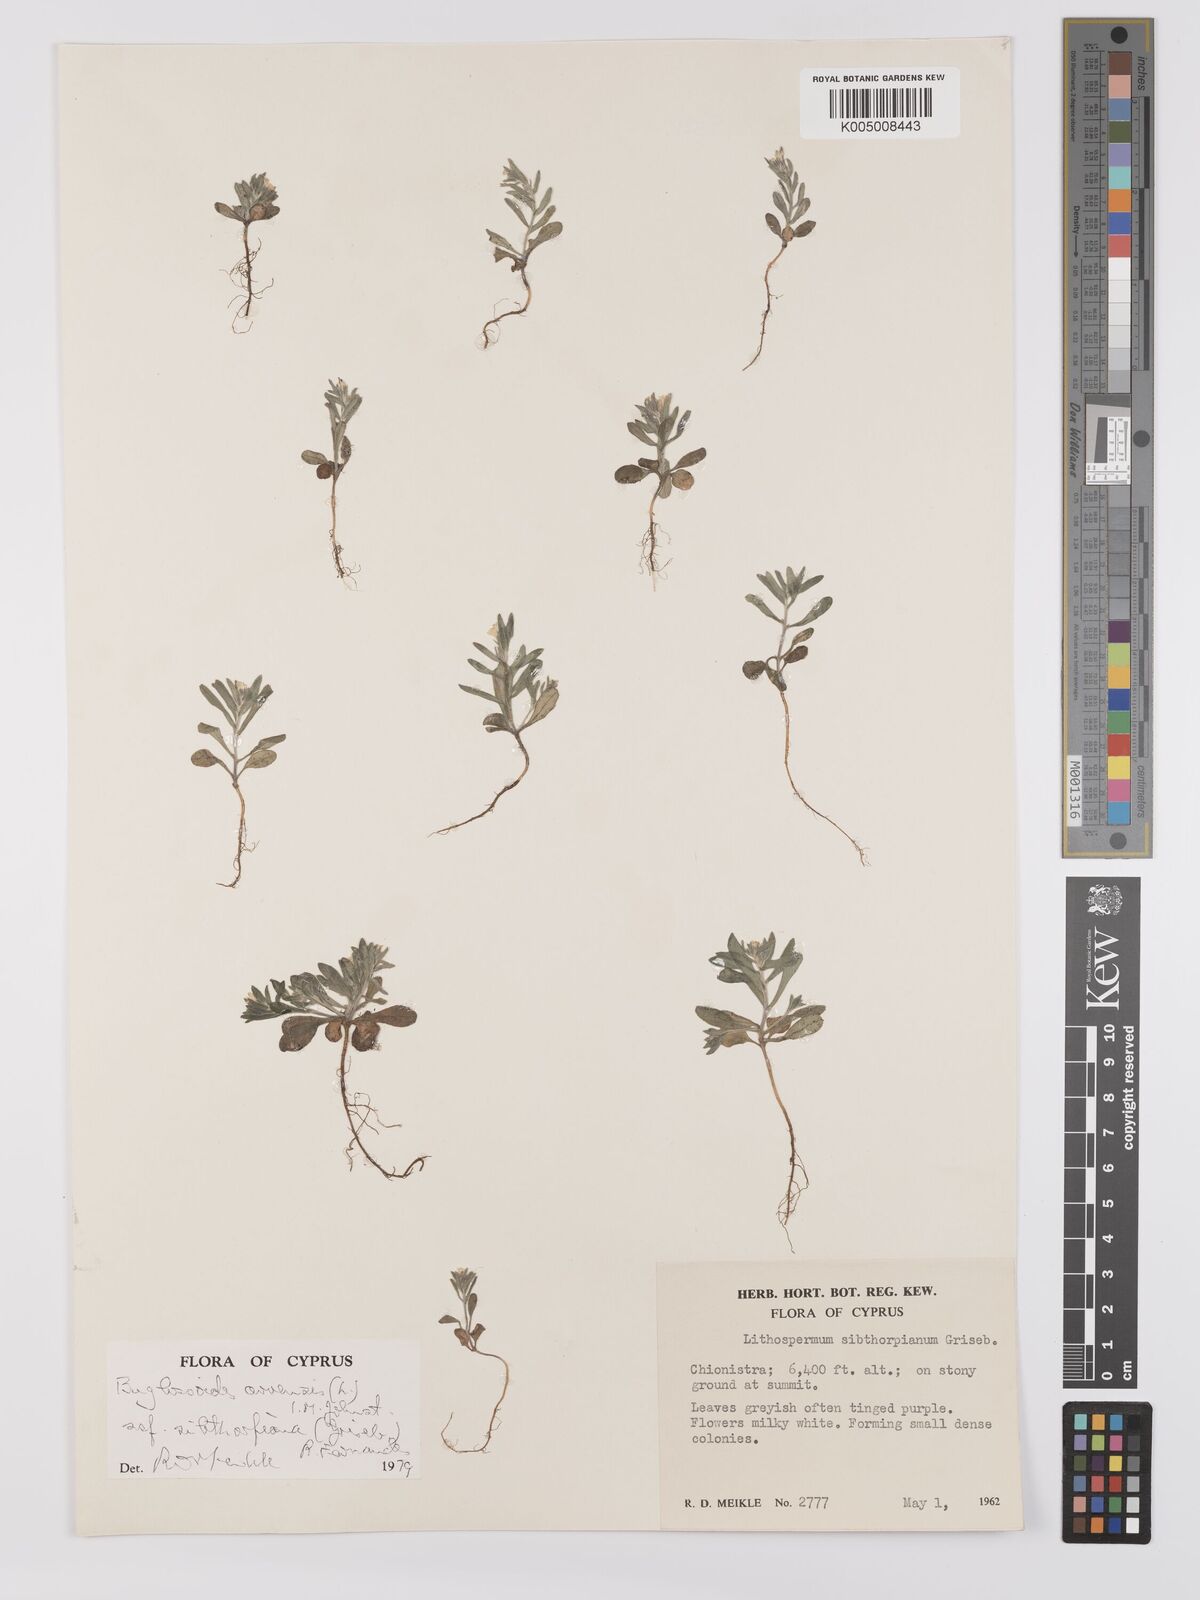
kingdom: Plantae
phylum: Tracheophyta
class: Magnoliopsida
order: Boraginales
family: Boraginaceae
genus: Buglossoides
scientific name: Buglossoides
